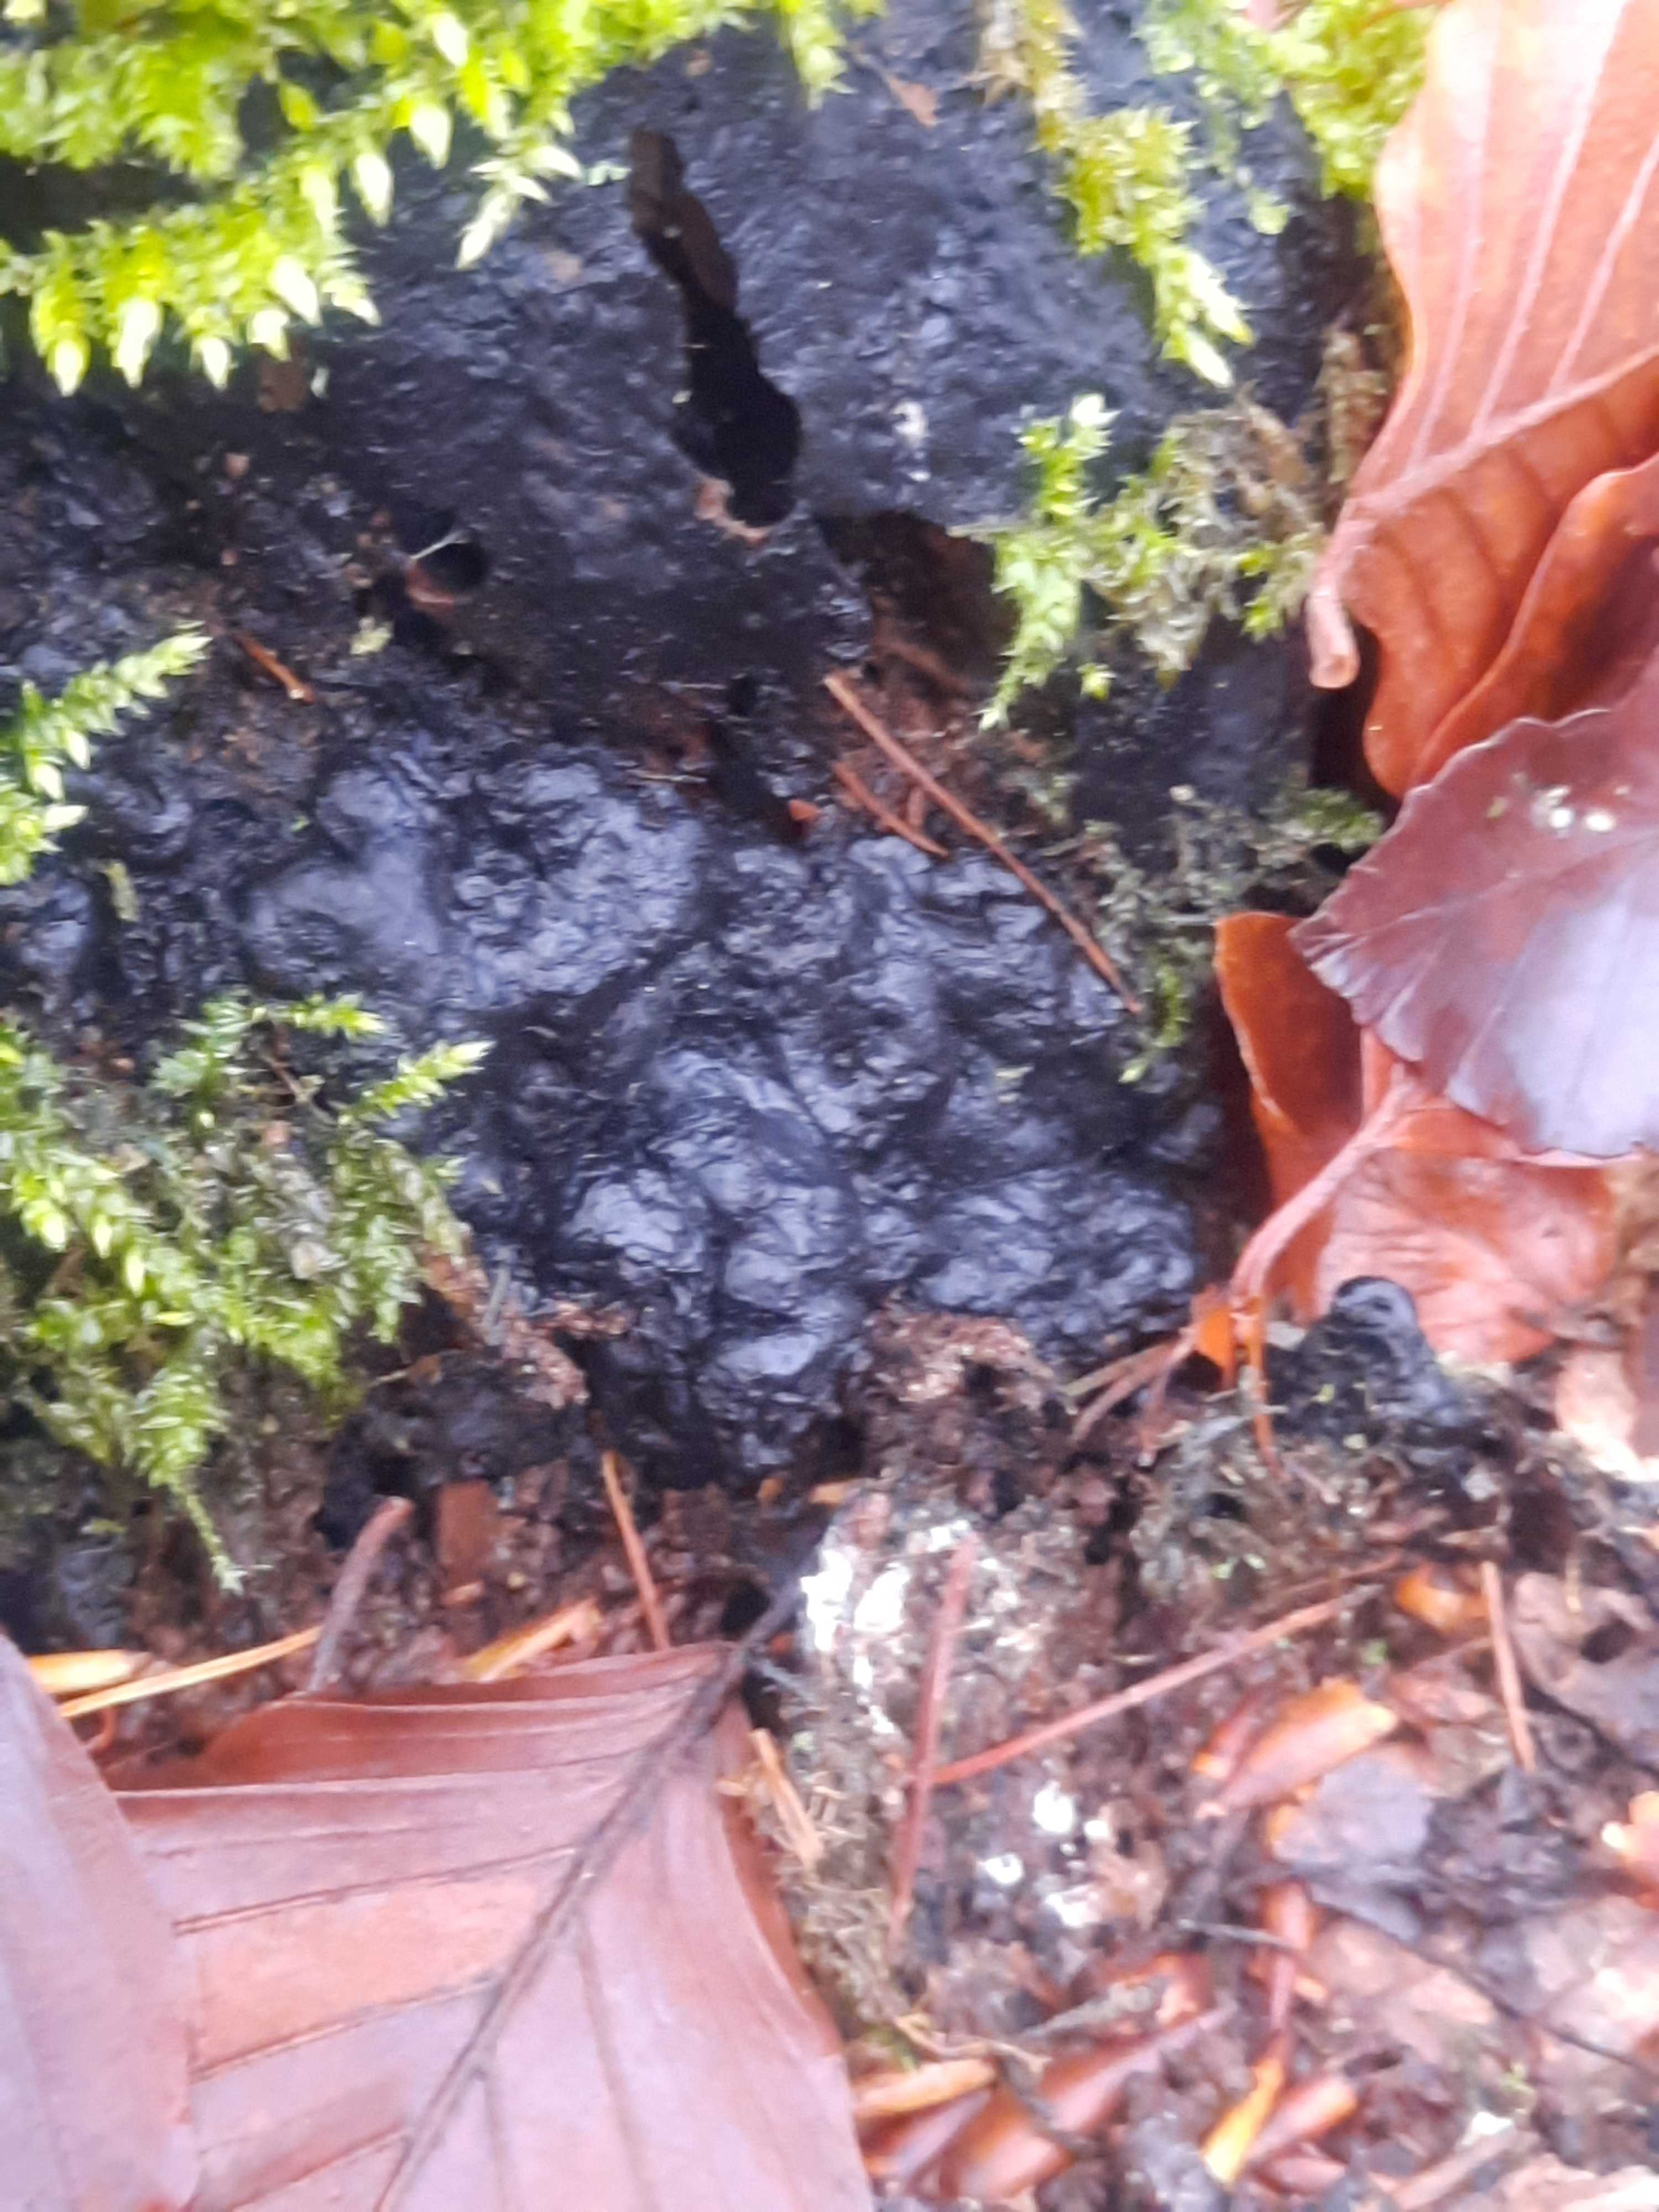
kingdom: Fungi
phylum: Ascomycota
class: Sordariomycetes
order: Xylariales
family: Xylariaceae
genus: Kretzschmaria
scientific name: Kretzschmaria deusta
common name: stor kulsvamp
